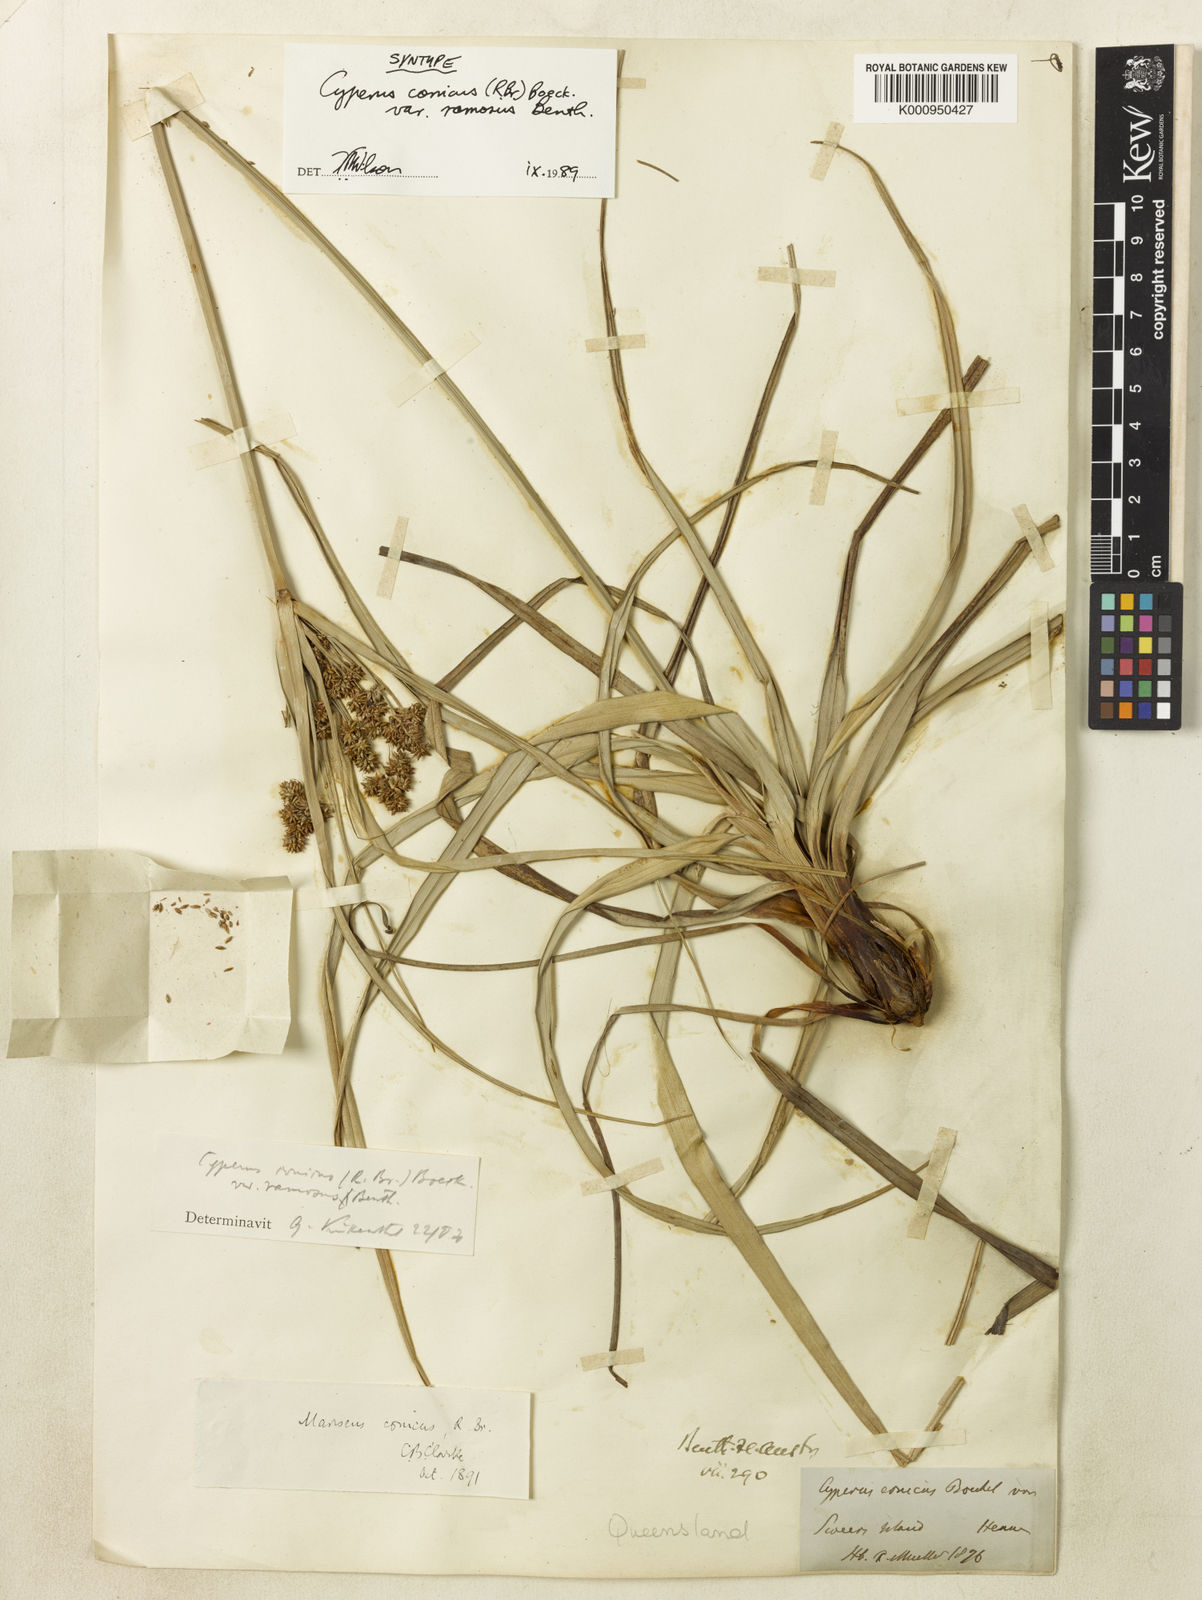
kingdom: Plantae
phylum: Tracheophyta
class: Liliopsida
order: Poales
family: Cyperaceae
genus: Cyperus
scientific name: Cyperus
